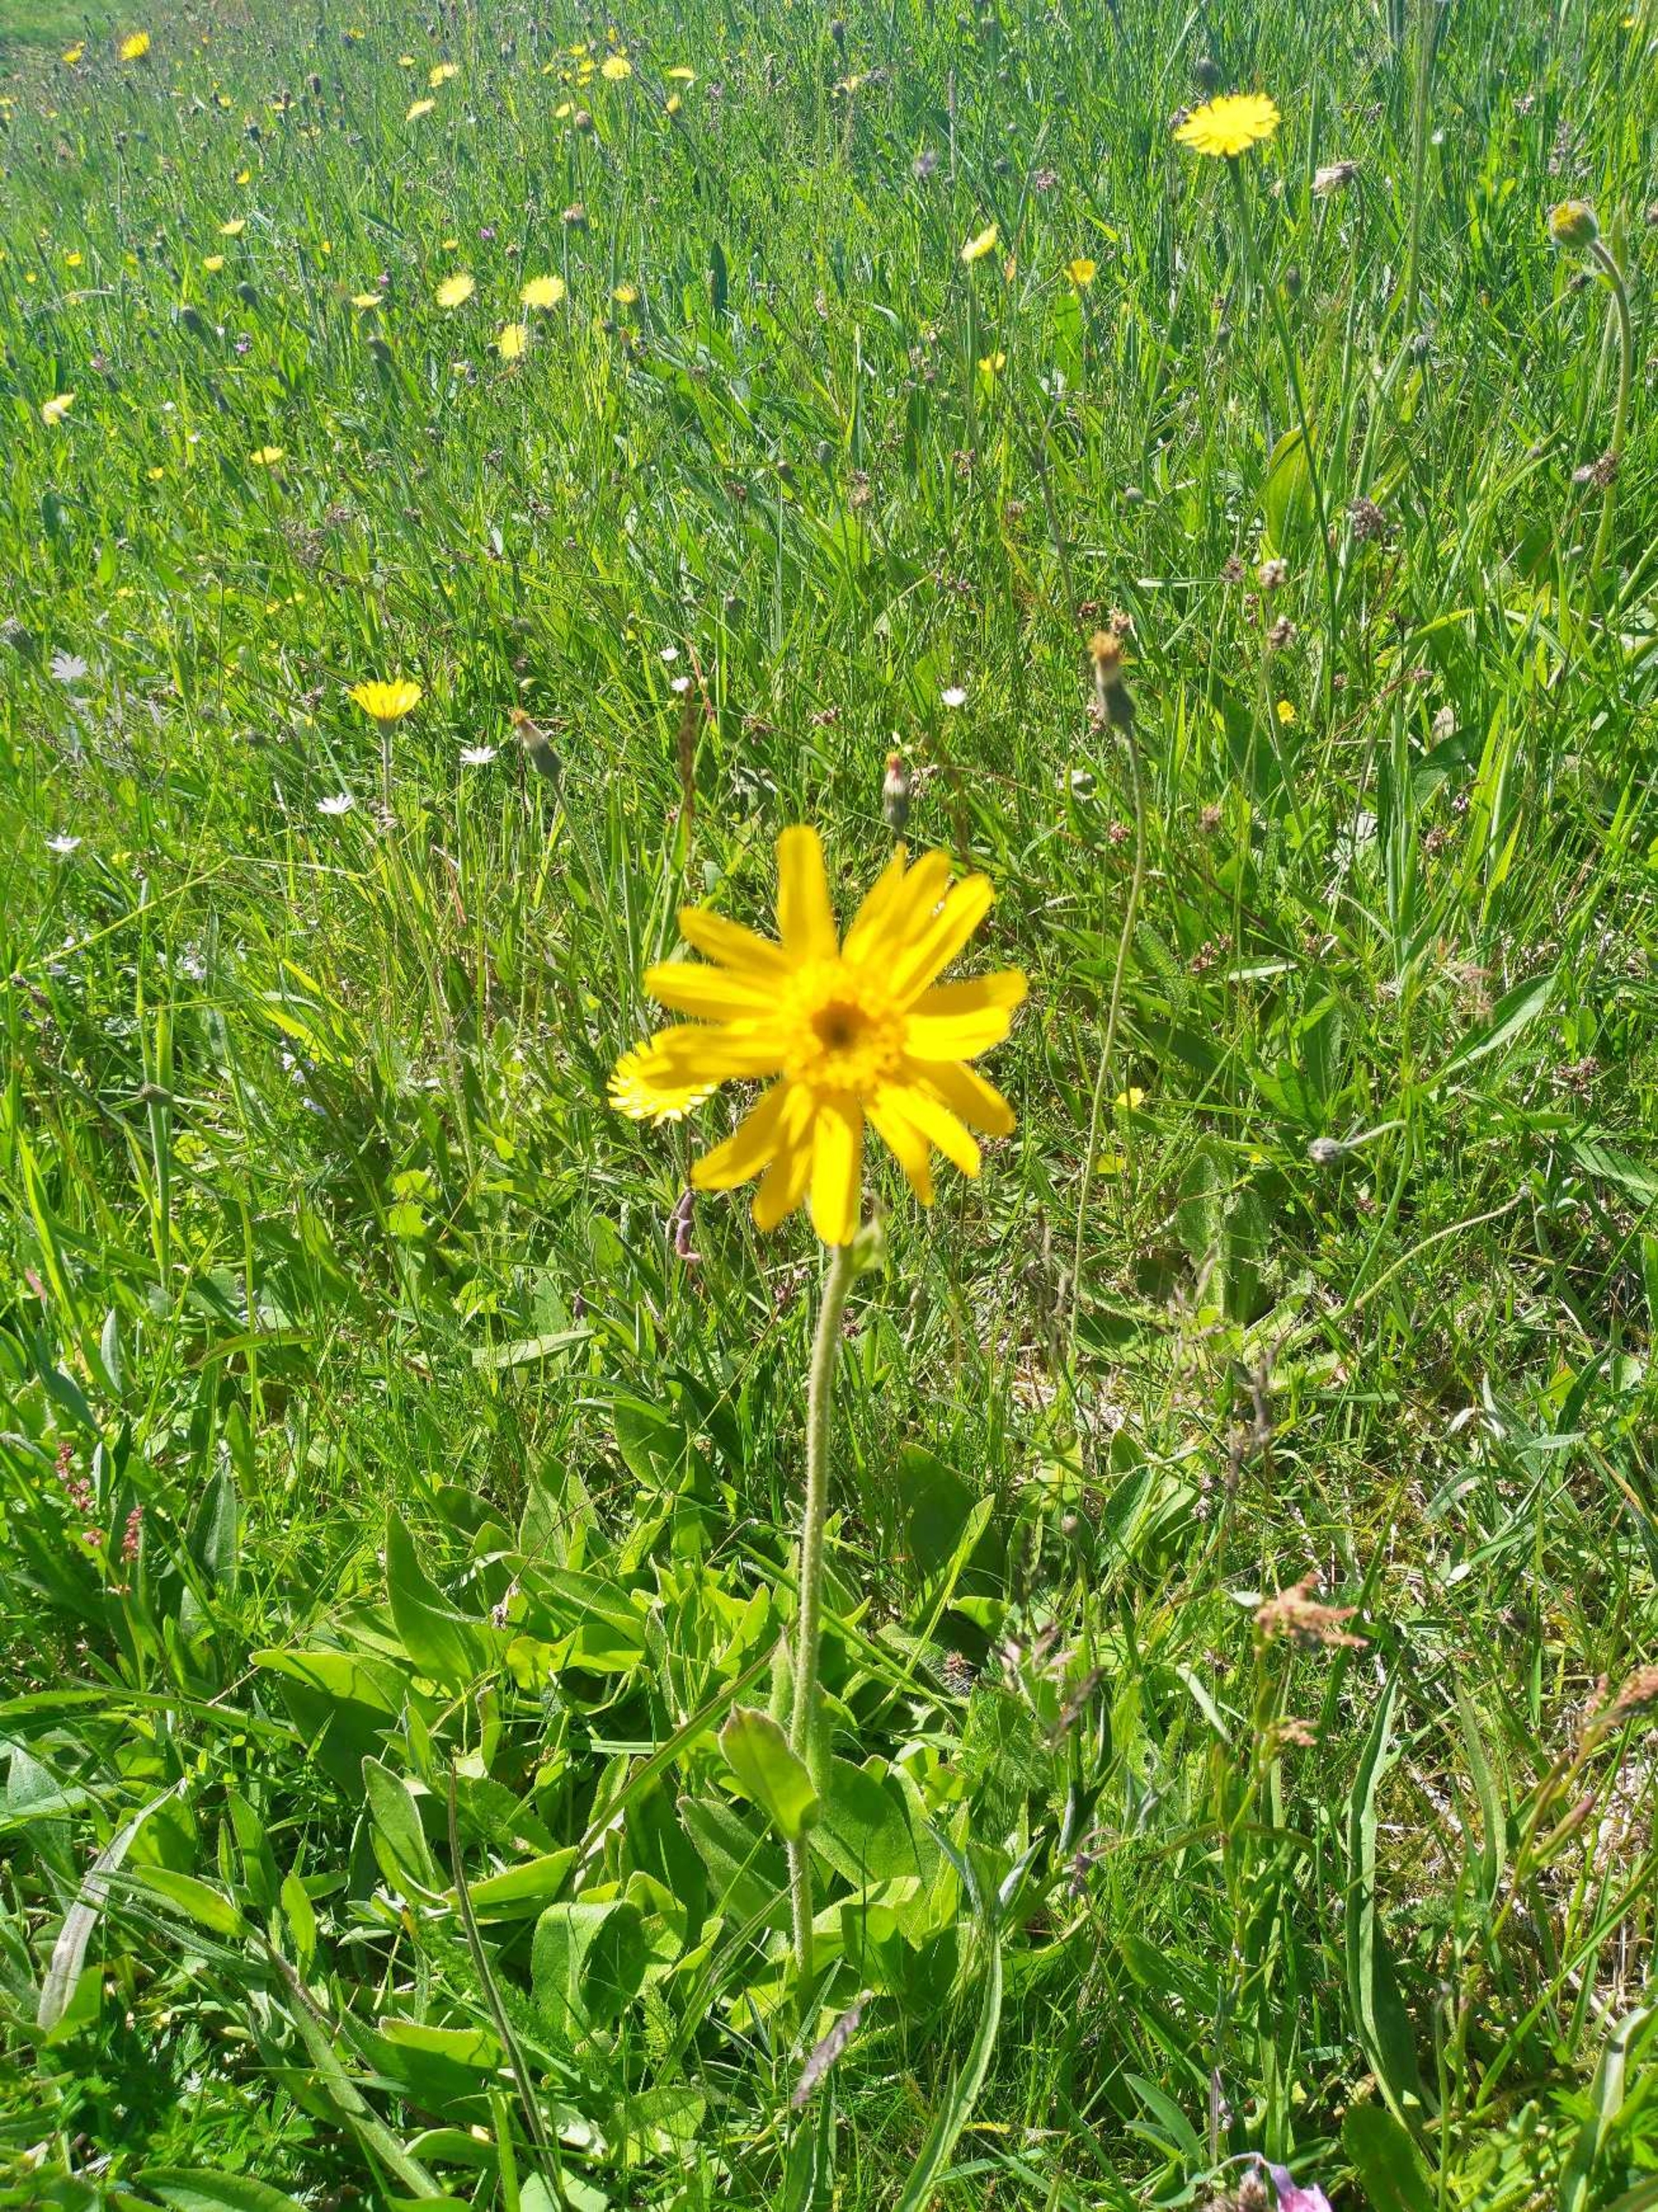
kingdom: Plantae
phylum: Tracheophyta
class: Magnoliopsida
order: Asterales
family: Asteraceae
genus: Arnica
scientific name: Arnica montana
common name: Guldblomme
